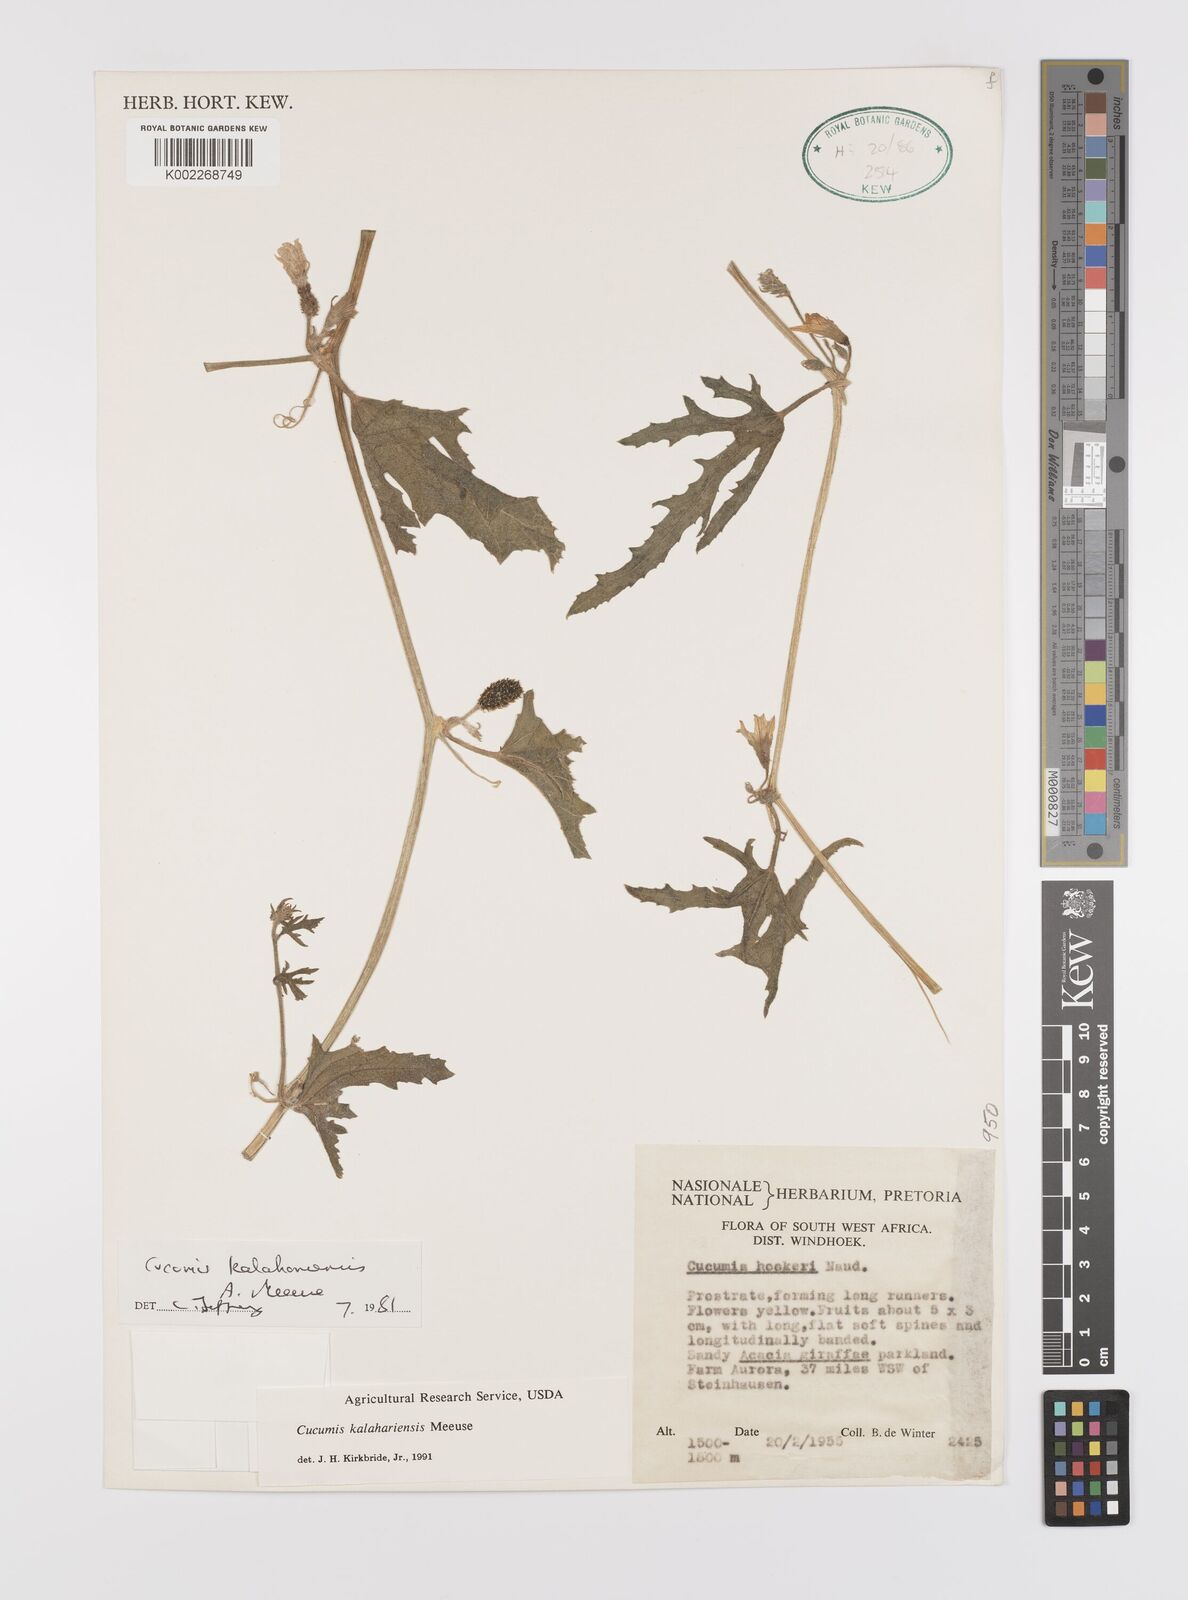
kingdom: Plantae
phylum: Tracheophyta
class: Magnoliopsida
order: Cucurbitales
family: Cucurbitaceae
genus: Cucumis
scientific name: Cucumis kalahariensis
